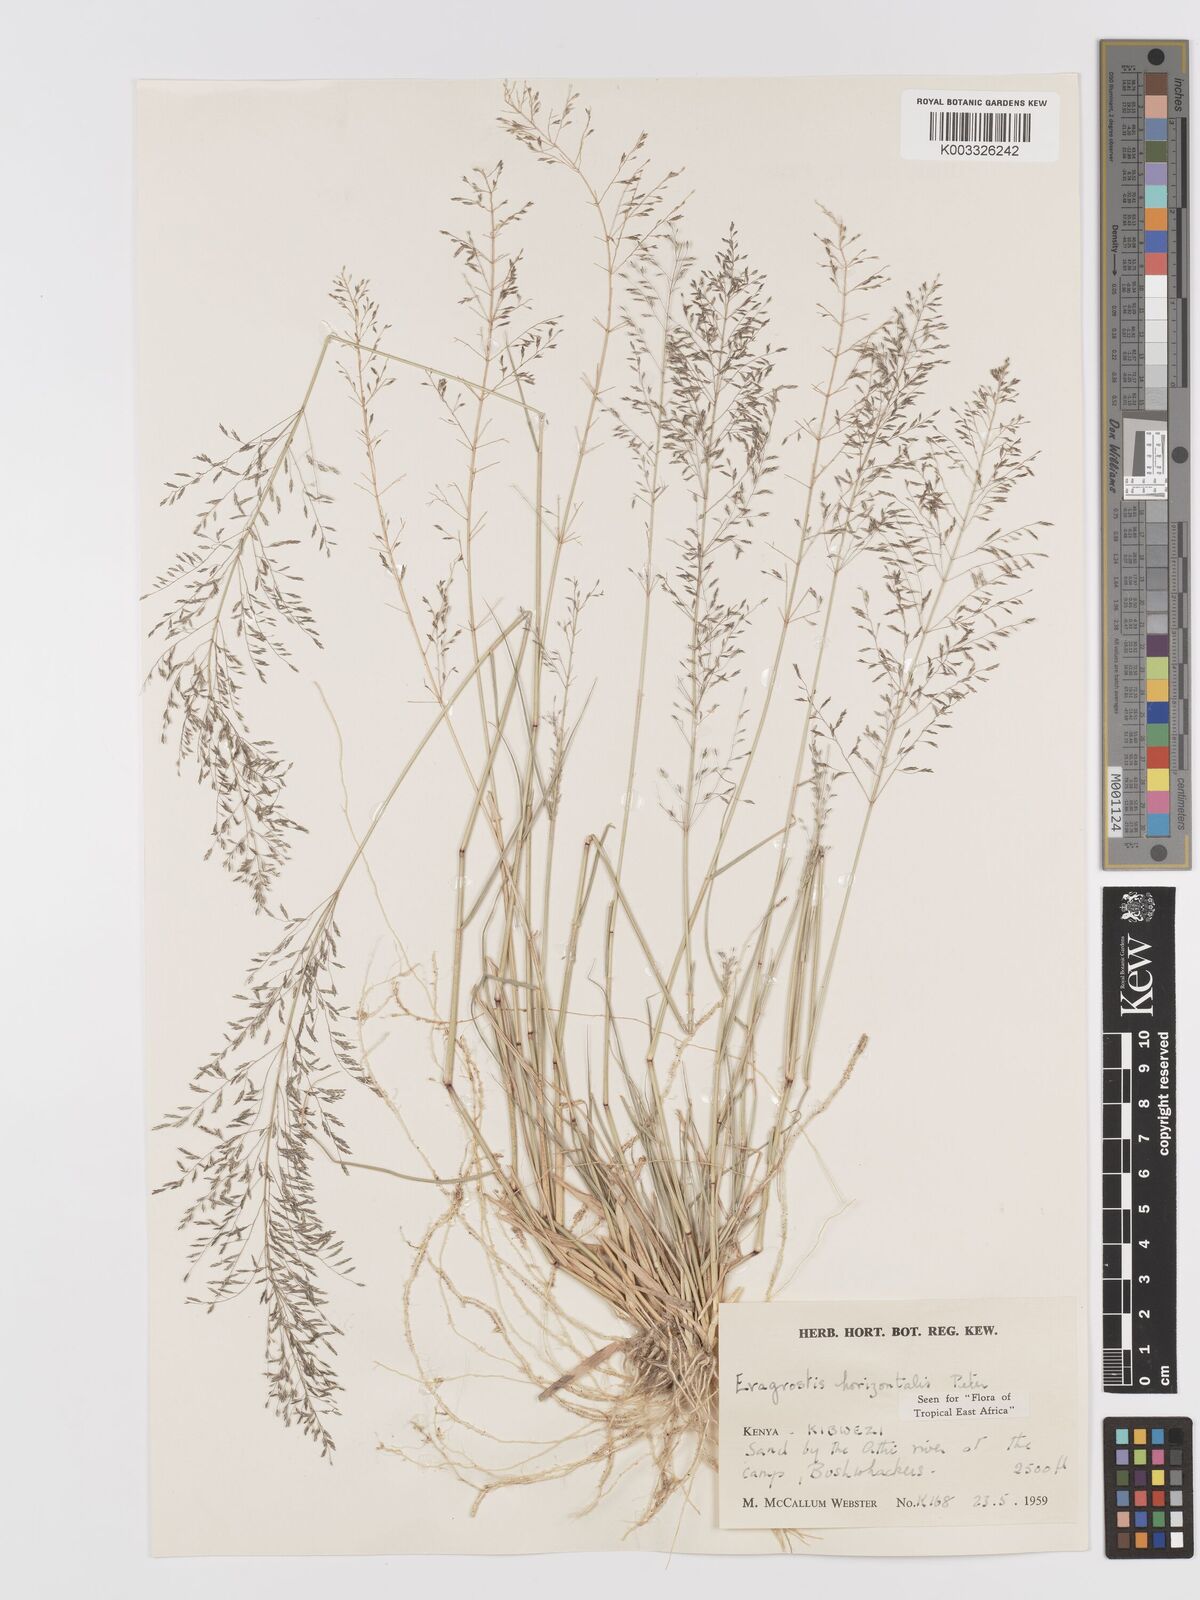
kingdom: Plantae
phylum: Tracheophyta
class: Liliopsida
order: Poales
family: Poaceae
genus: Eragrostis
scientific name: Eragrostis cylindriflora
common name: Cylinderflower lovegrass
